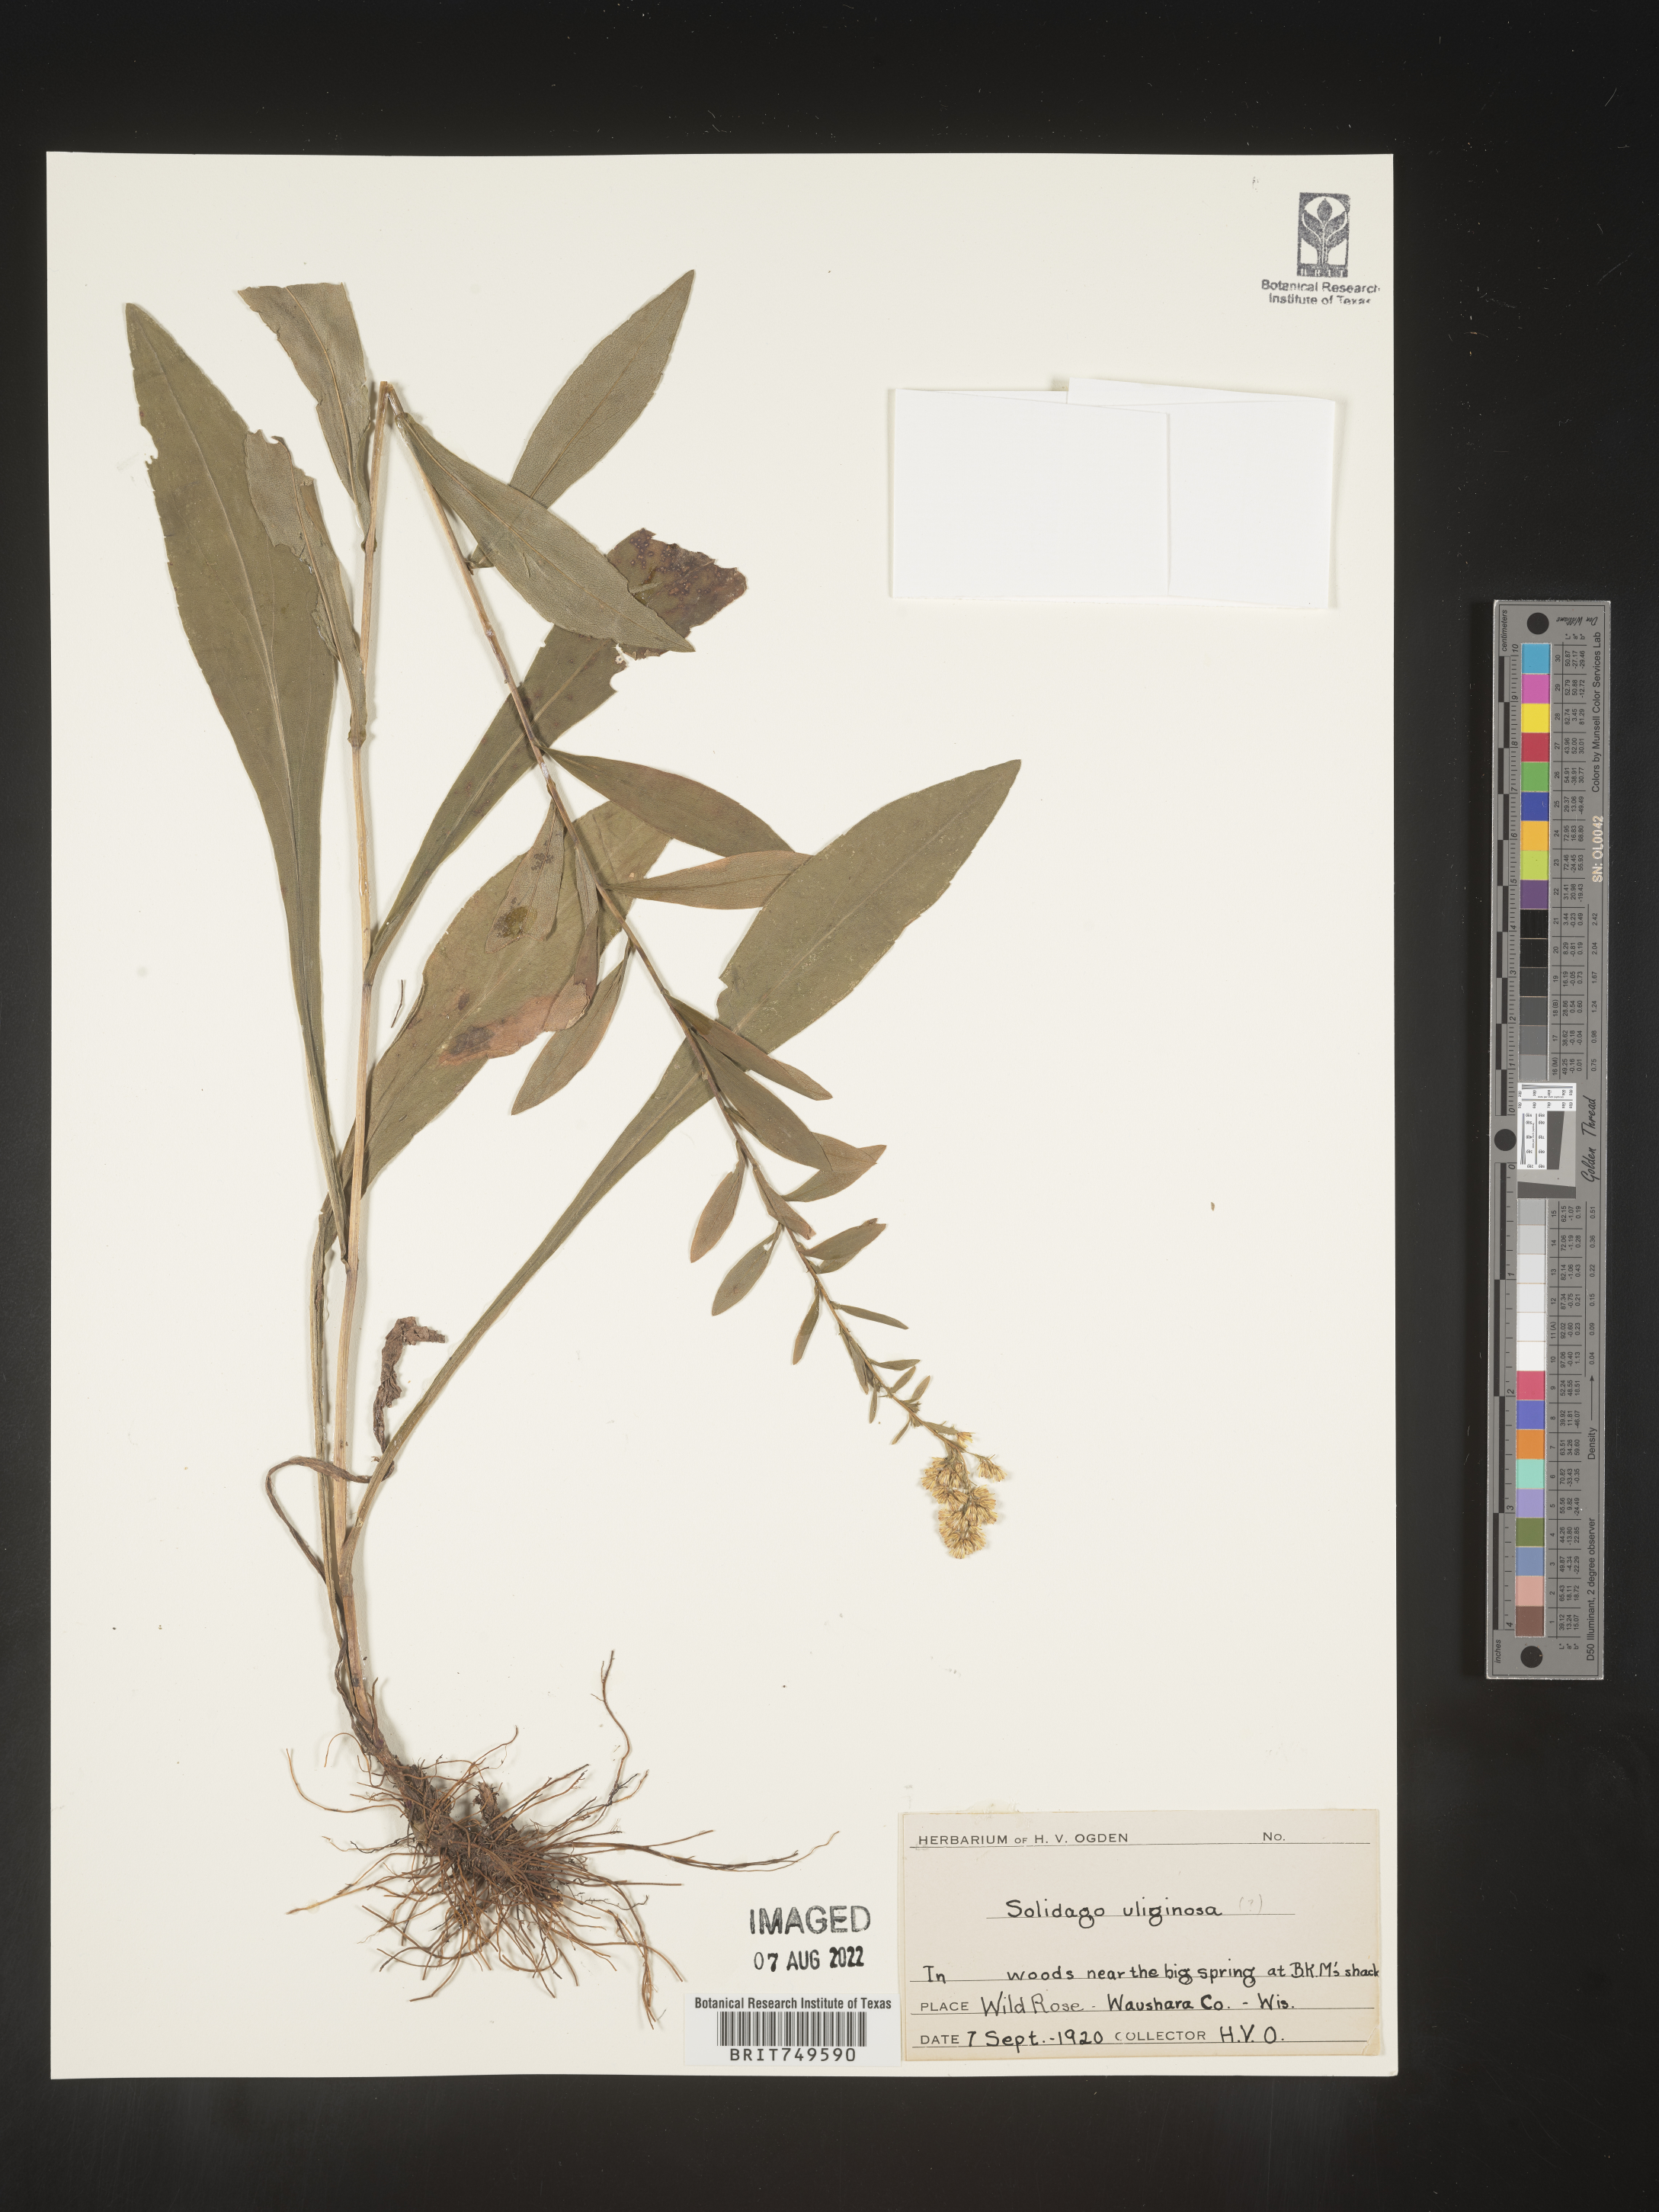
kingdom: Plantae
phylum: Tracheophyta
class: Magnoliopsida
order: Asterales
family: Asteraceae
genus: Solidago
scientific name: Solidago uliginosa
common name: Bog goldenrod
